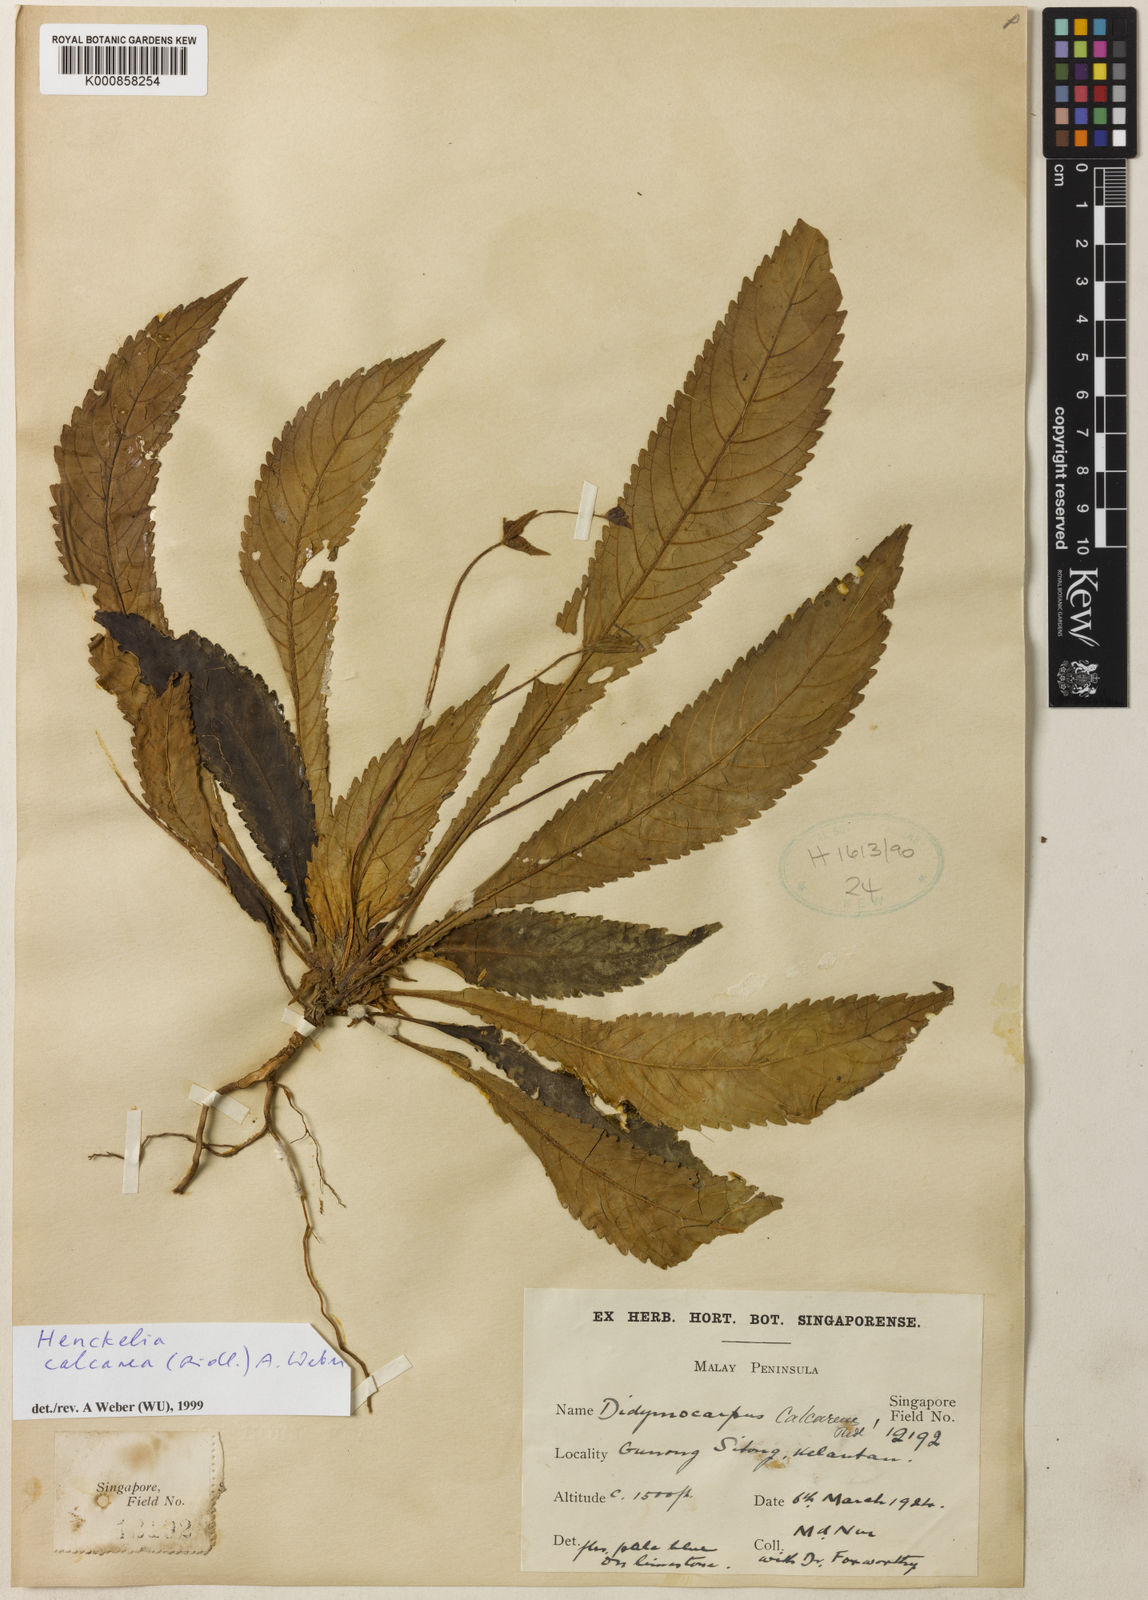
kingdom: Plantae
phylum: Tracheophyta
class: Magnoliopsida
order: Lamiales
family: Gesneriaceae
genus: Codonoboea
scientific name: Codonoboea calcarea
